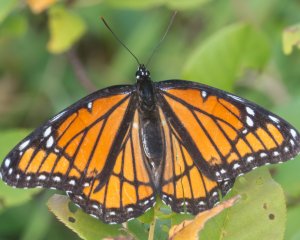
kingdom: Animalia
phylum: Arthropoda
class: Insecta
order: Lepidoptera
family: Nymphalidae
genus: Limenitis
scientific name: Limenitis archippus
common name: Viceroy
